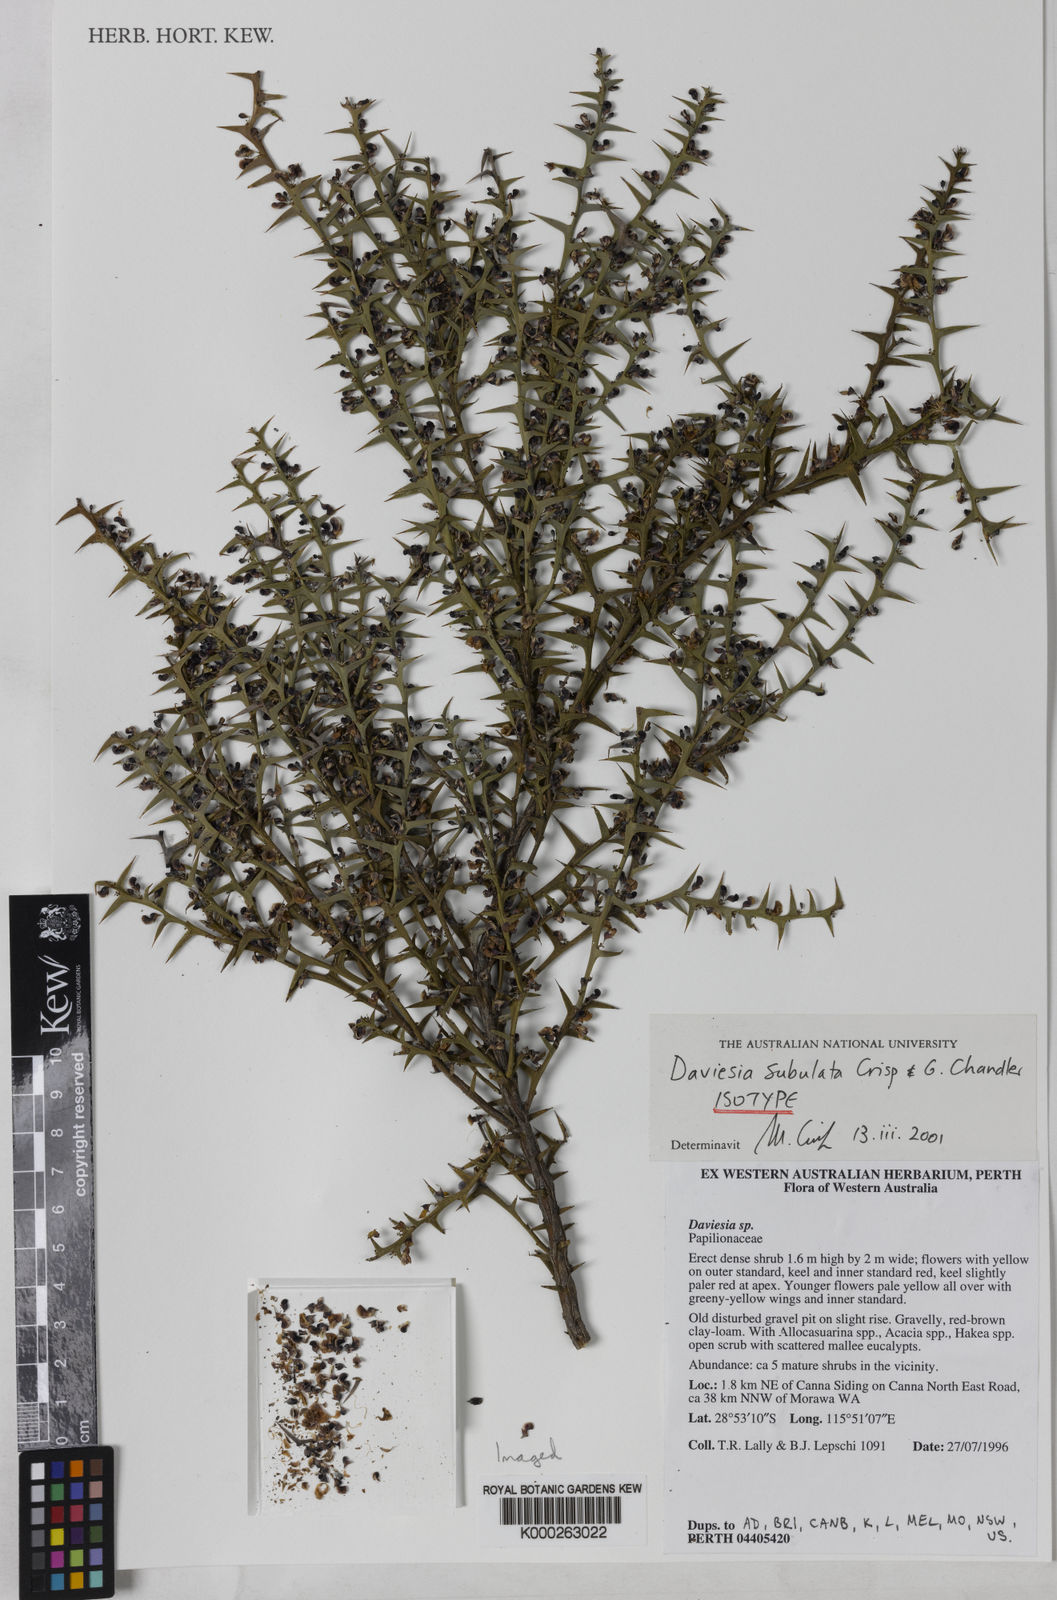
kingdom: Plantae
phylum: Tracheophyta
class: Magnoliopsida
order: Fabales
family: Fabaceae
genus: Daviesia
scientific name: Daviesia subulata
